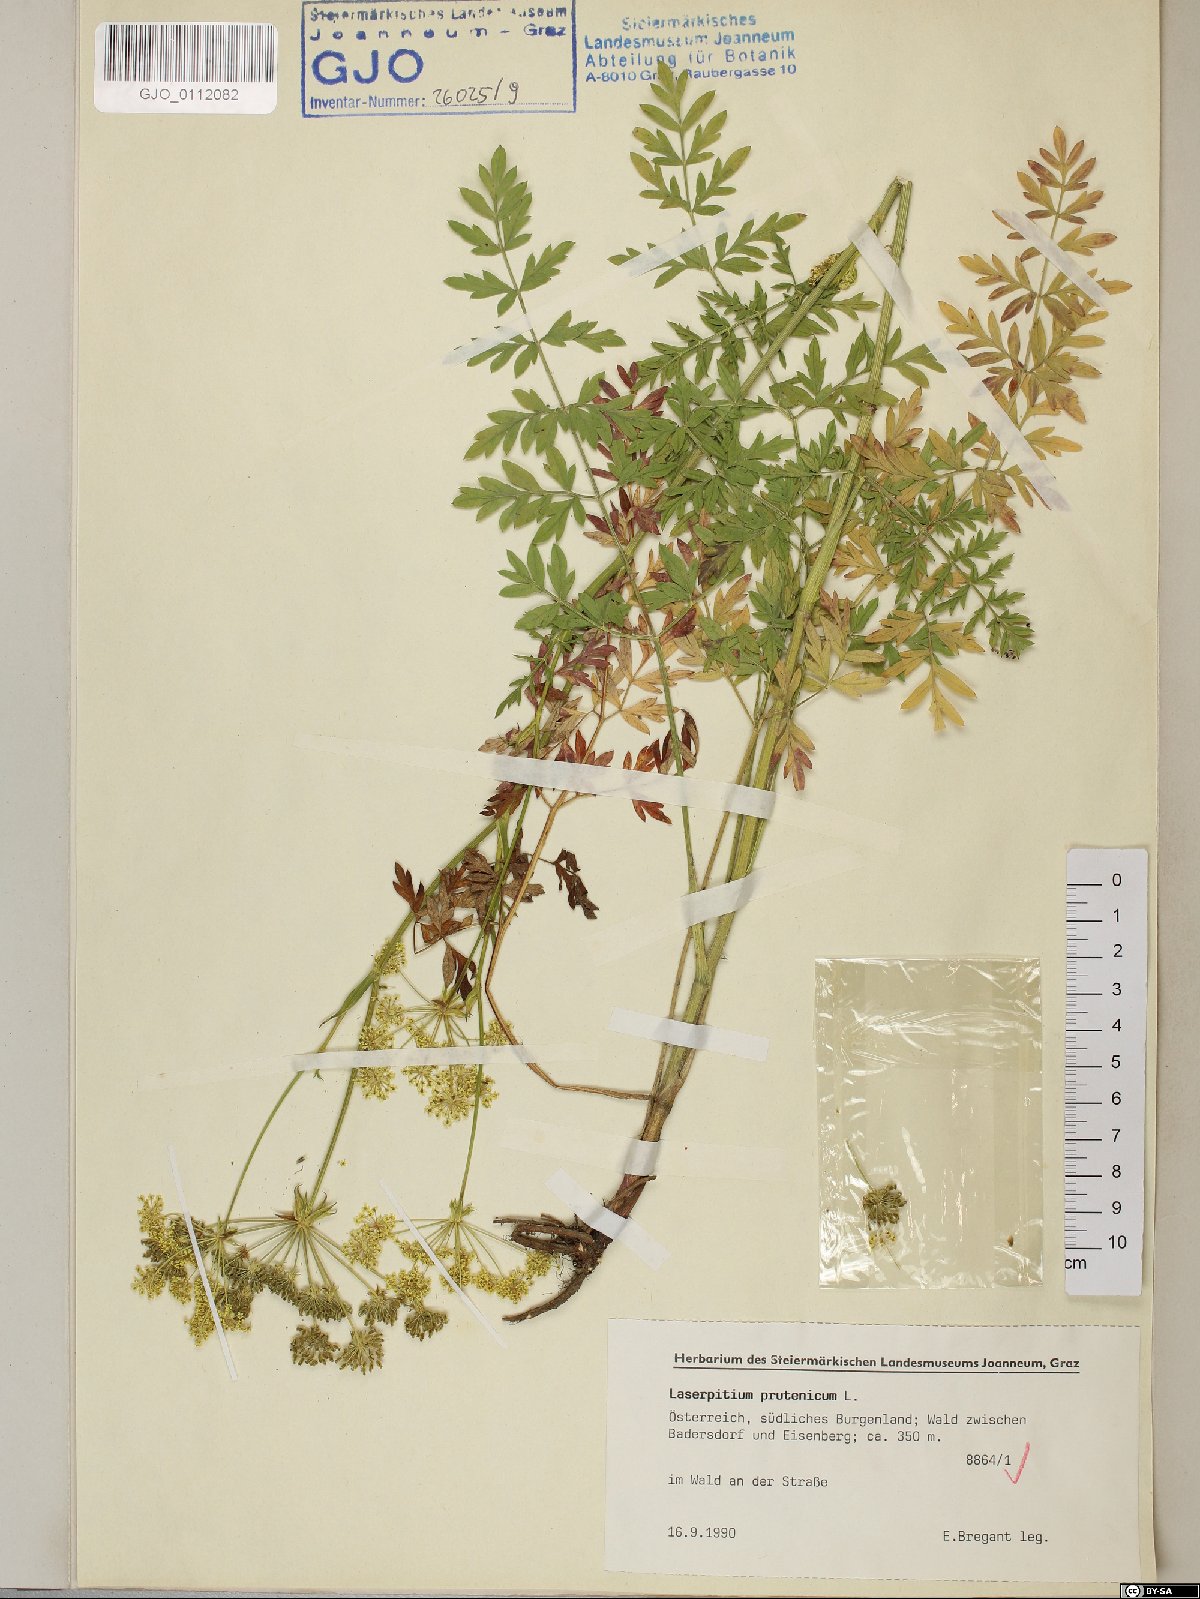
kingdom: Plantae
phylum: Tracheophyta
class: Magnoliopsida
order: Apiales
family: Apiaceae
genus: Silphiodaucus
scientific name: Silphiodaucus prutenicus
